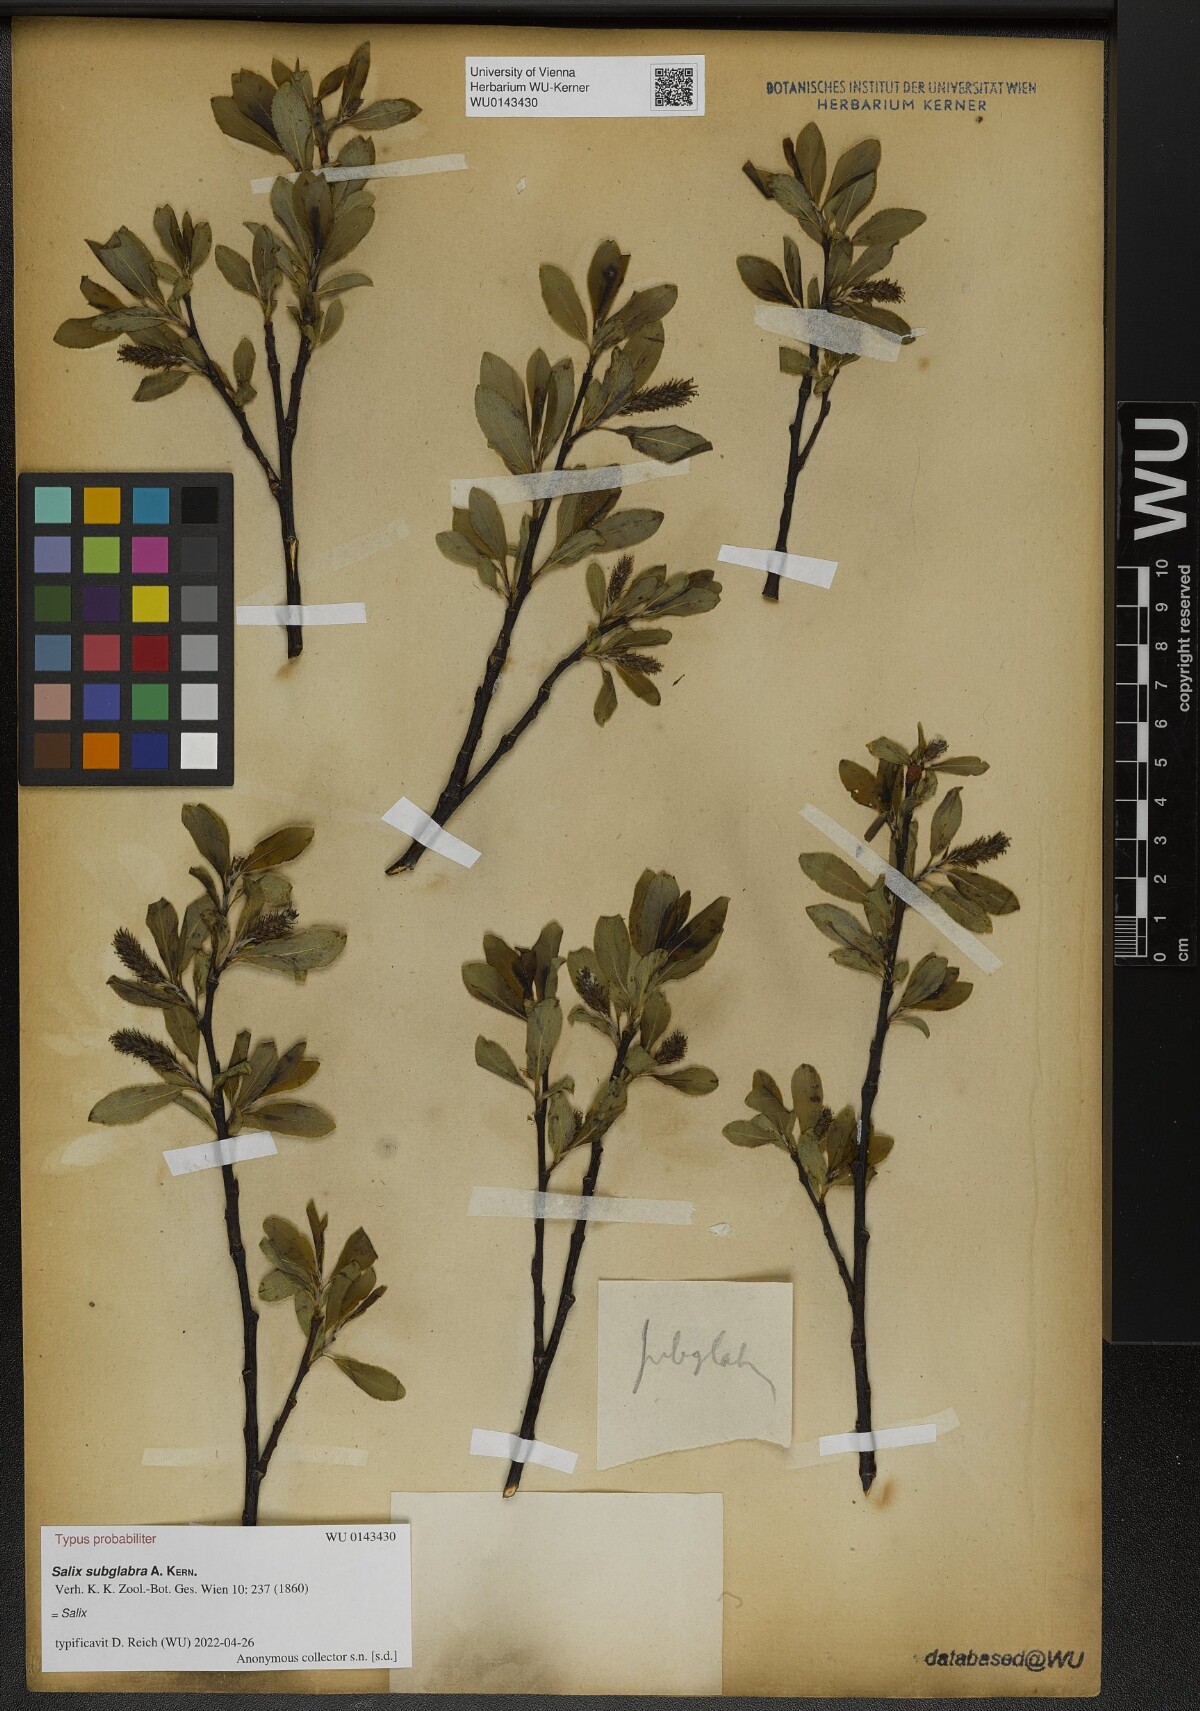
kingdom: Plantae
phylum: Tracheophyta
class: Magnoliopsida
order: Malpighiales
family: Salicaceae
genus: Salix
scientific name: Salix subglabra
